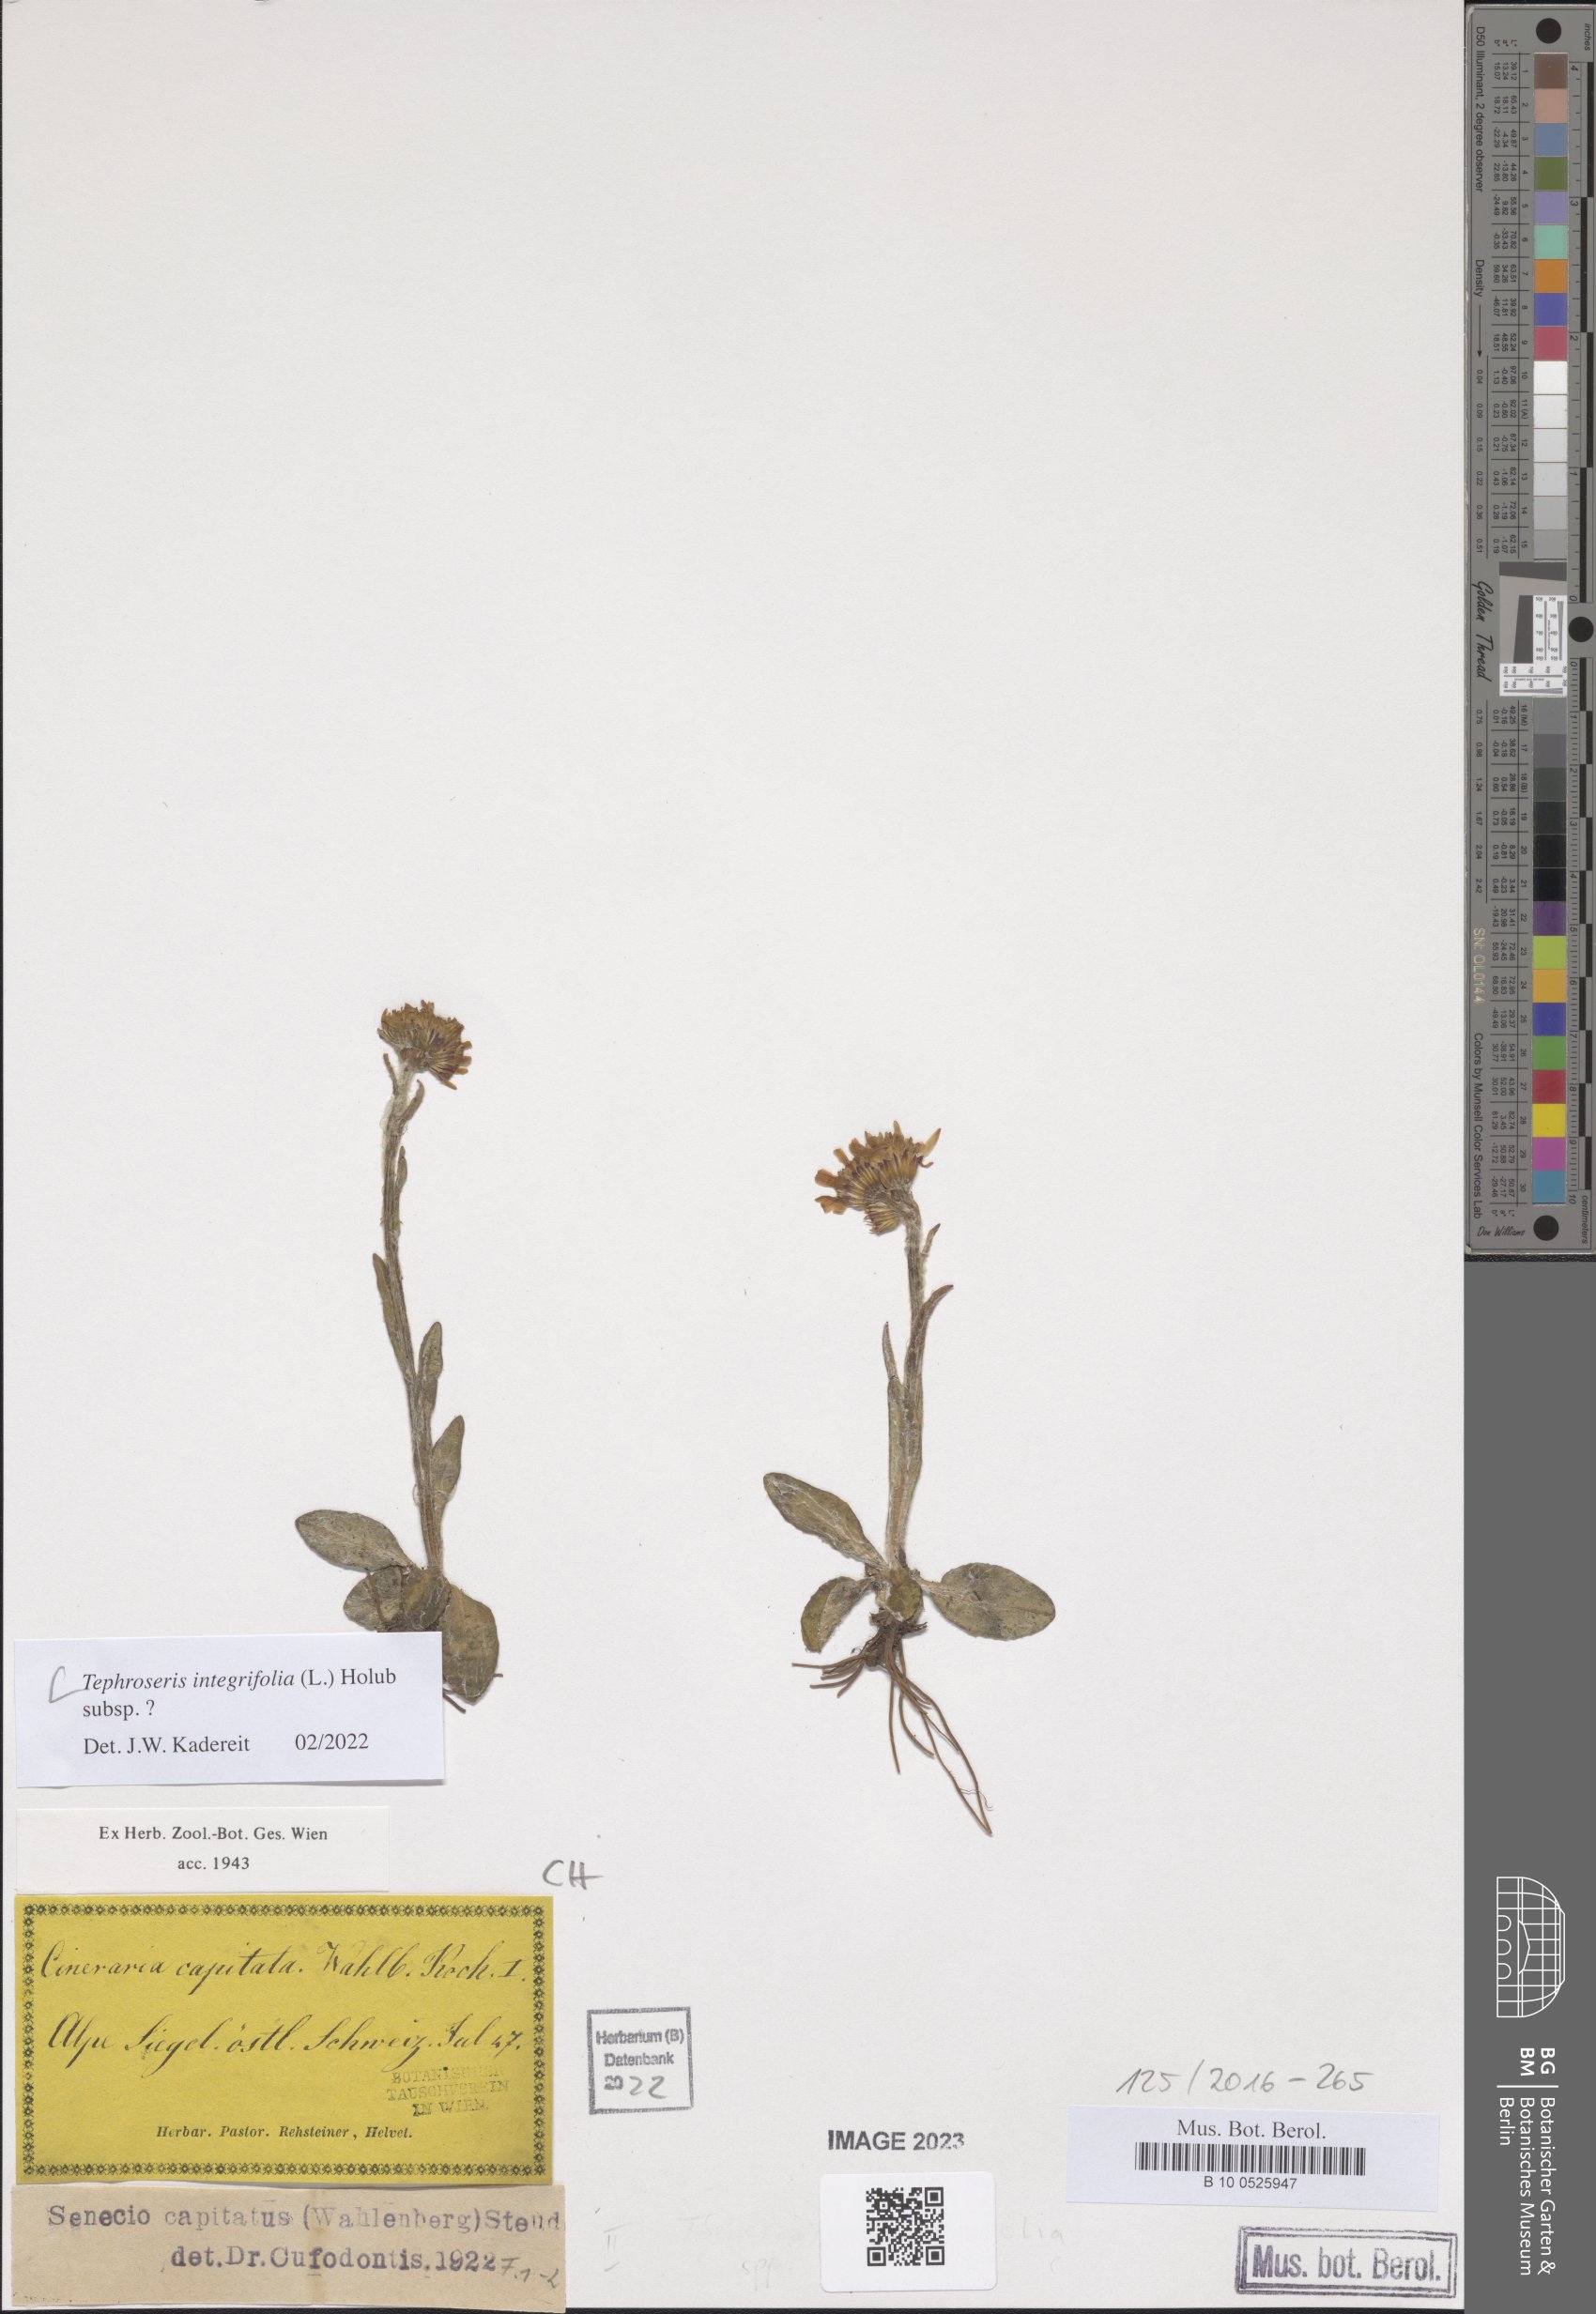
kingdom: Plantae
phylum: Tracheophyta
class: Magnoliopsida
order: Asterales
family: Asteraceae
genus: Tephroseris
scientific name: Tephroseris integrifolia
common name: Field fleawort
